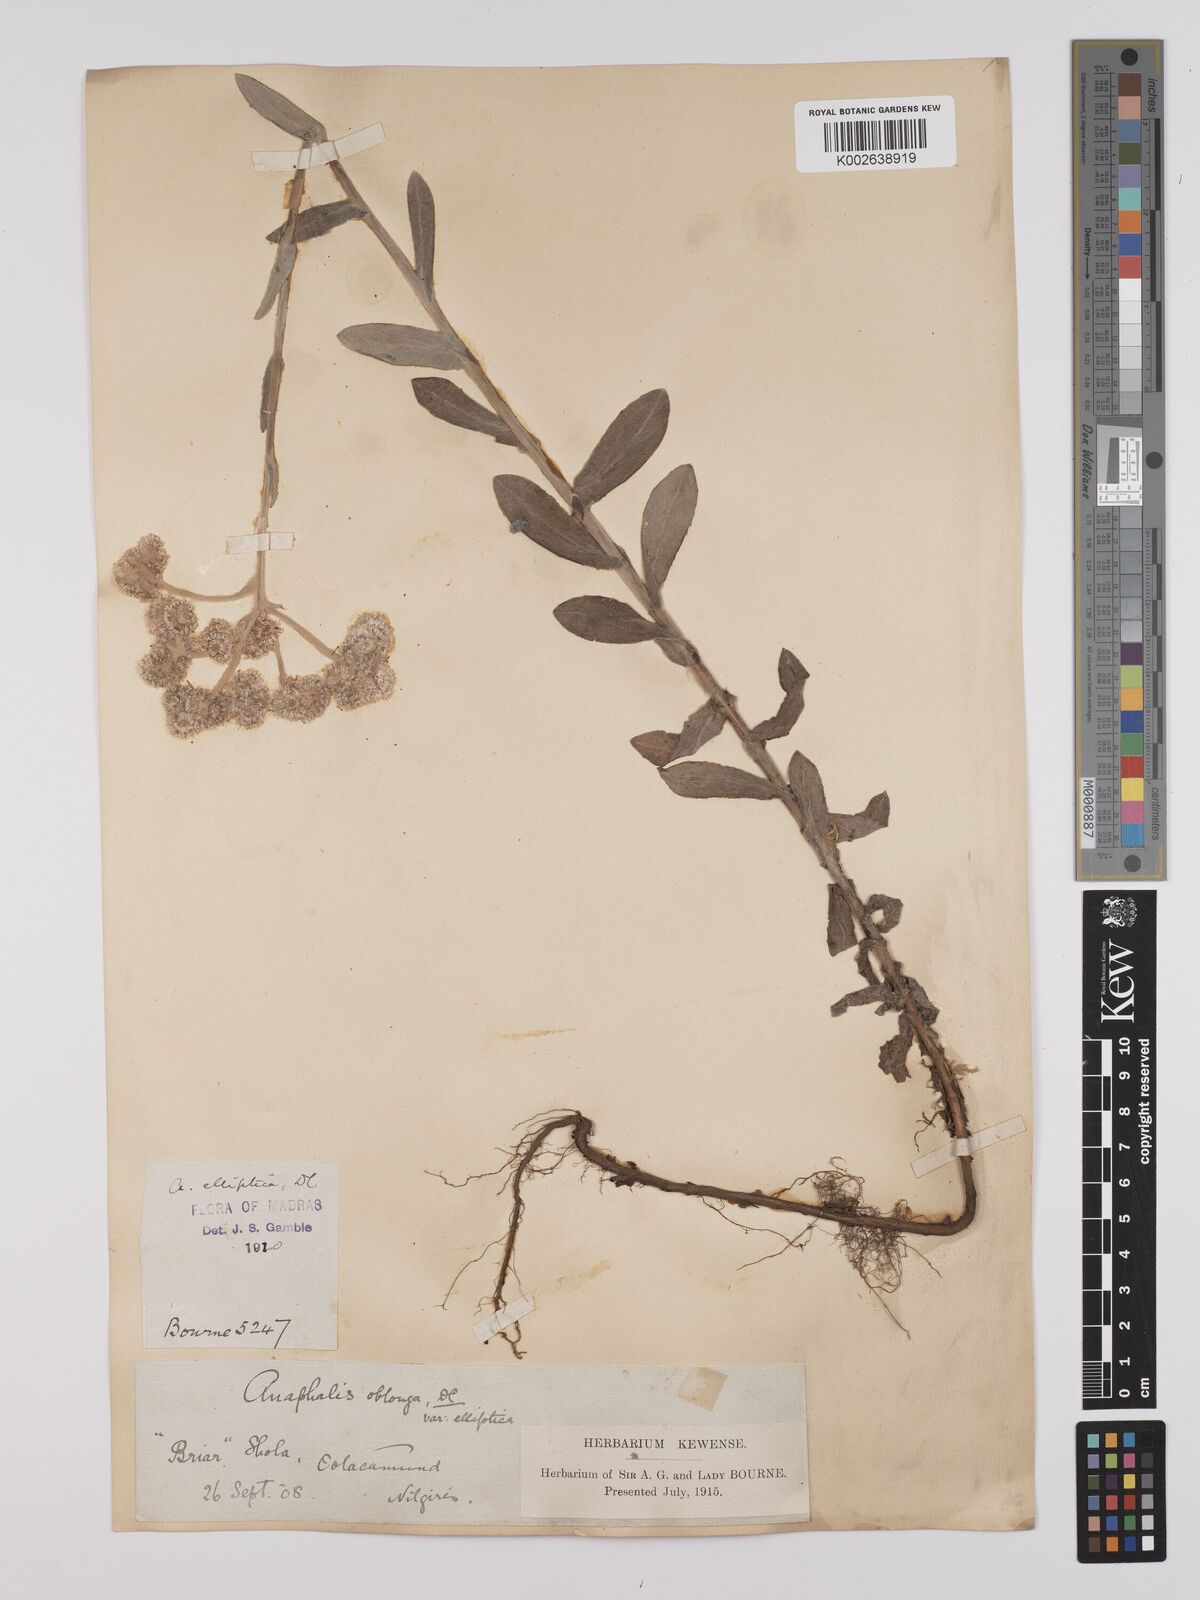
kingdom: Plantae
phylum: Tracheophyta
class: Magnoliopsida
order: Asterales
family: Asteraceae
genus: Anaphalis
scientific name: Anaphalis elliptica
